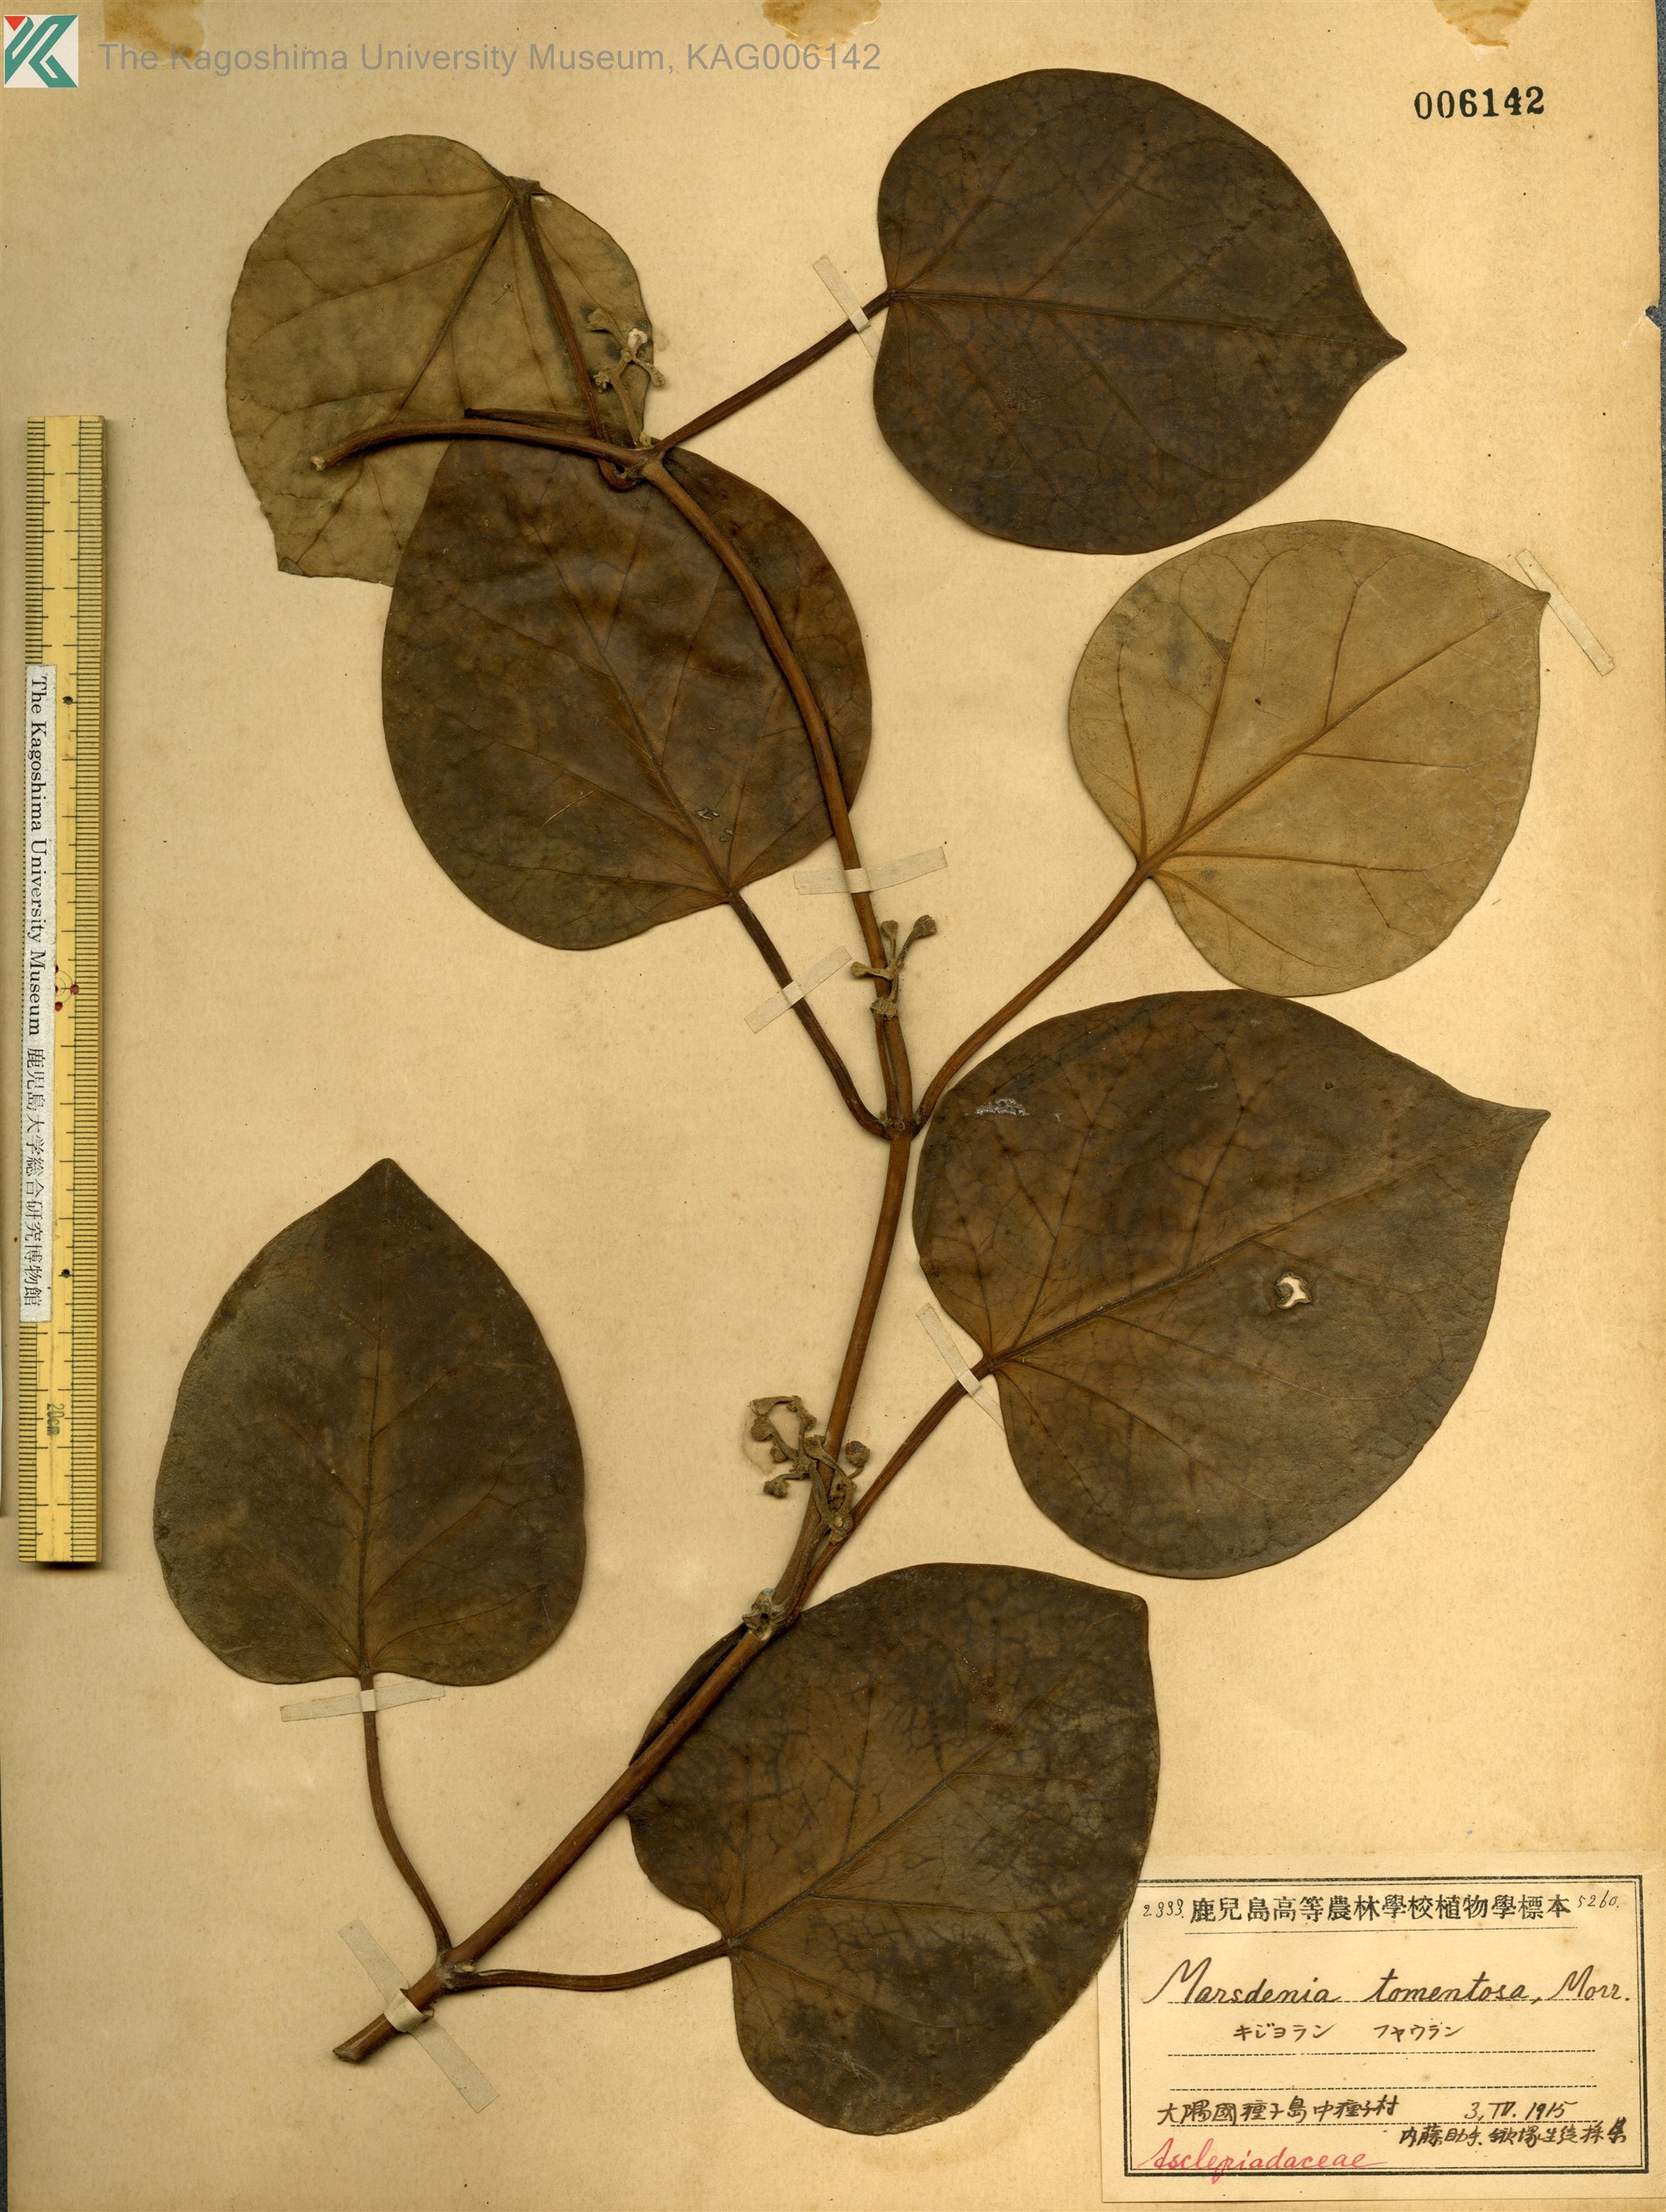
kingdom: Plantae
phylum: Tracheophyta
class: Magnoliopsida
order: Gentianales
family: Apocynaceae
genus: Sinomarsdenia
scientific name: Sinomarsdenia tomentosa
